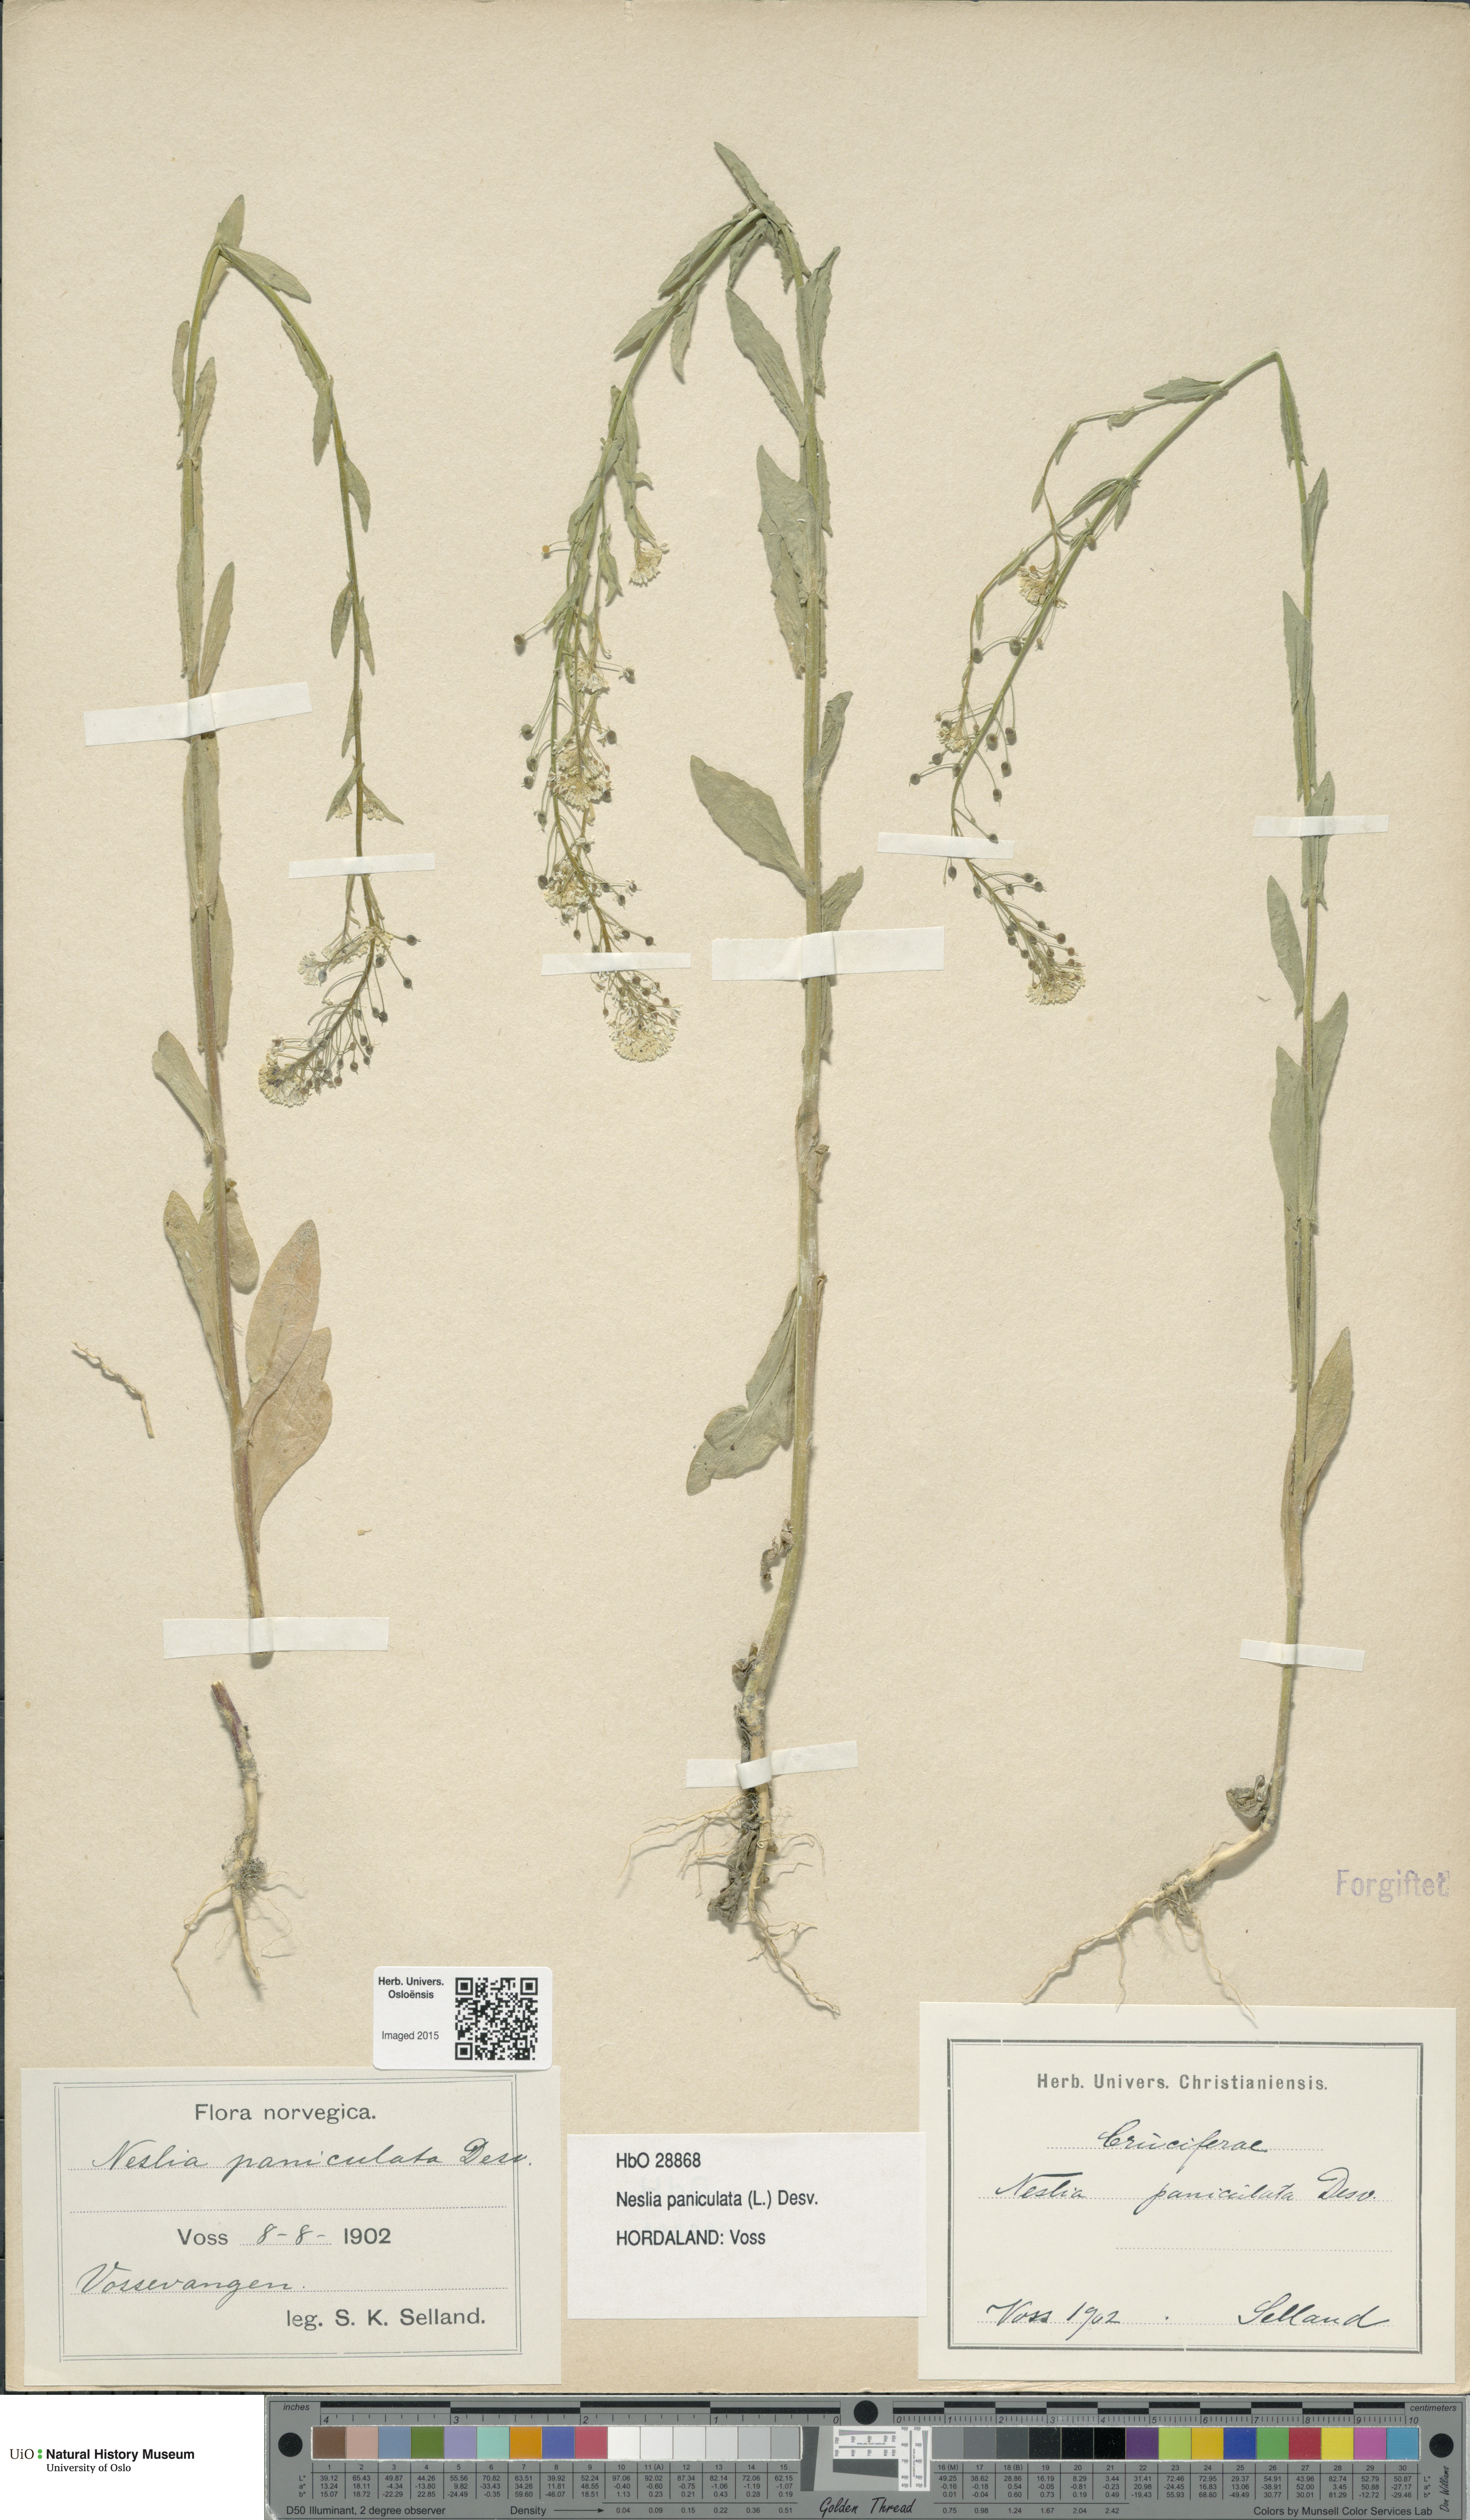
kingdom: Plantae
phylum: Tracheophyta
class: Magnoliopsida
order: Brassicales
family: Brassicaceae
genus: Neslia
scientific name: Neslia paniculata
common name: Ball mustard
